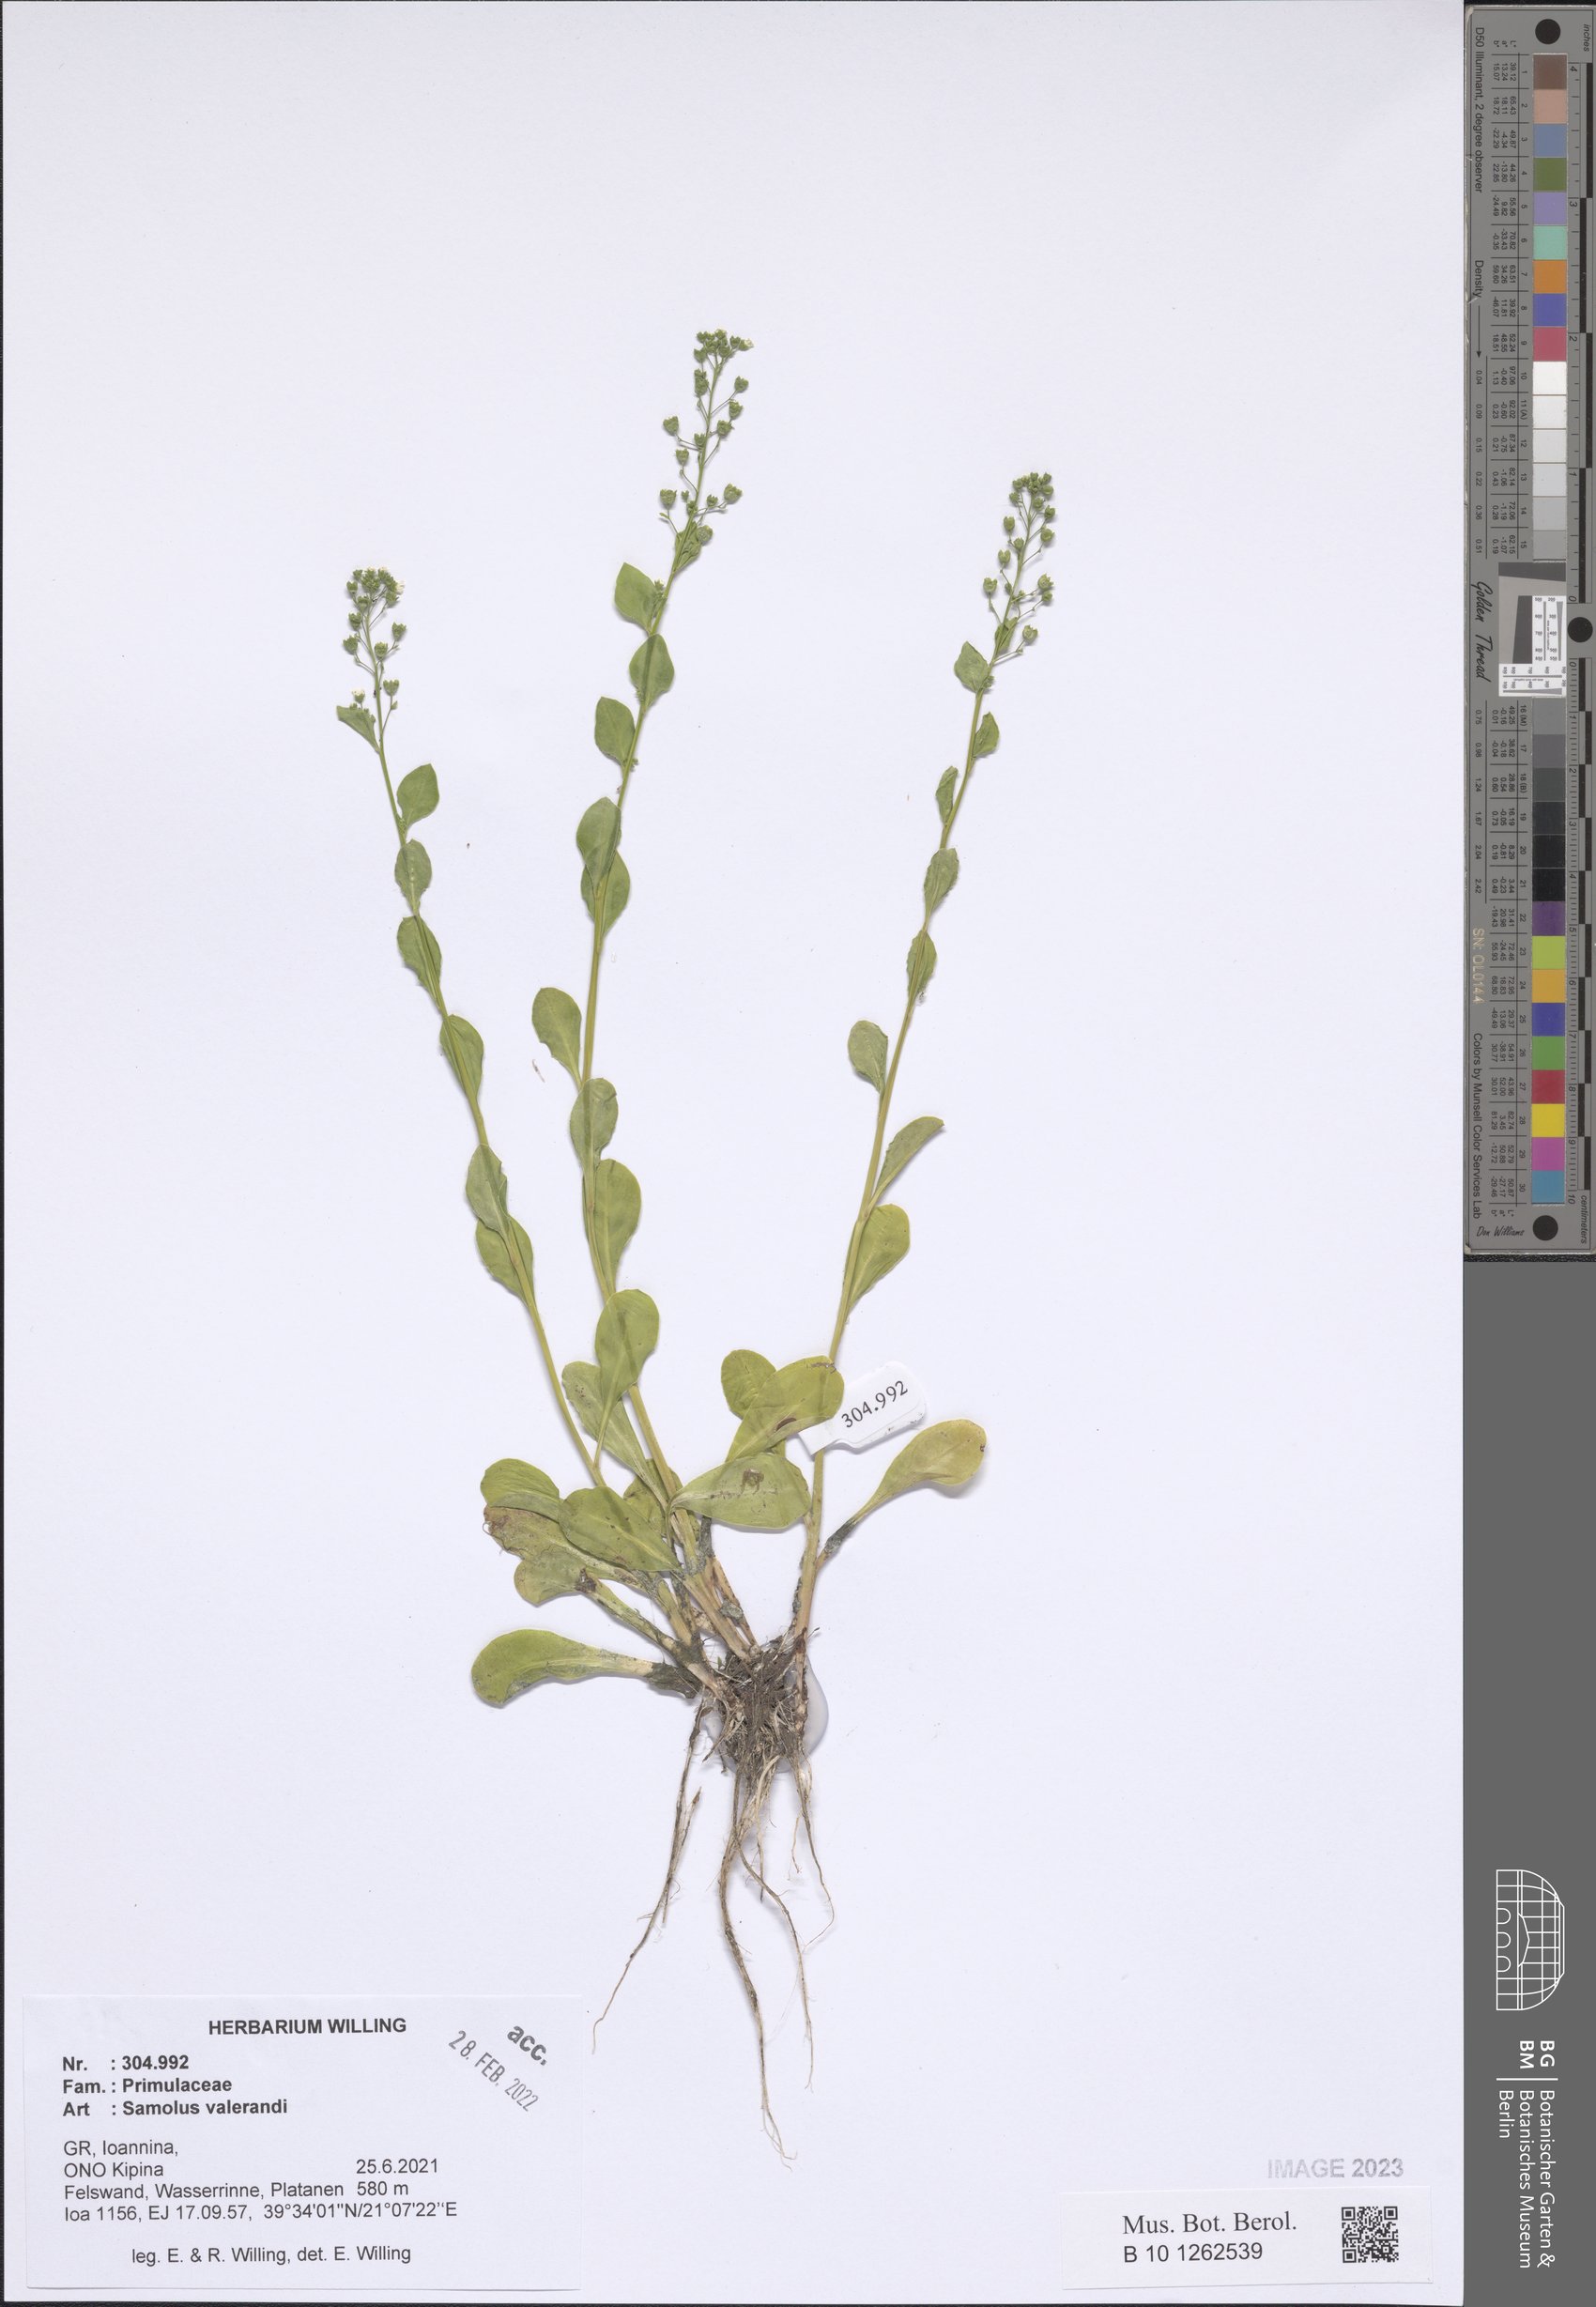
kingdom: Plantae
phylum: Tracheophyta
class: Magnoliopsida
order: Ericales
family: Primulaceae
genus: Samolus
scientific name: Samolus valerandi
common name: Brookweed
